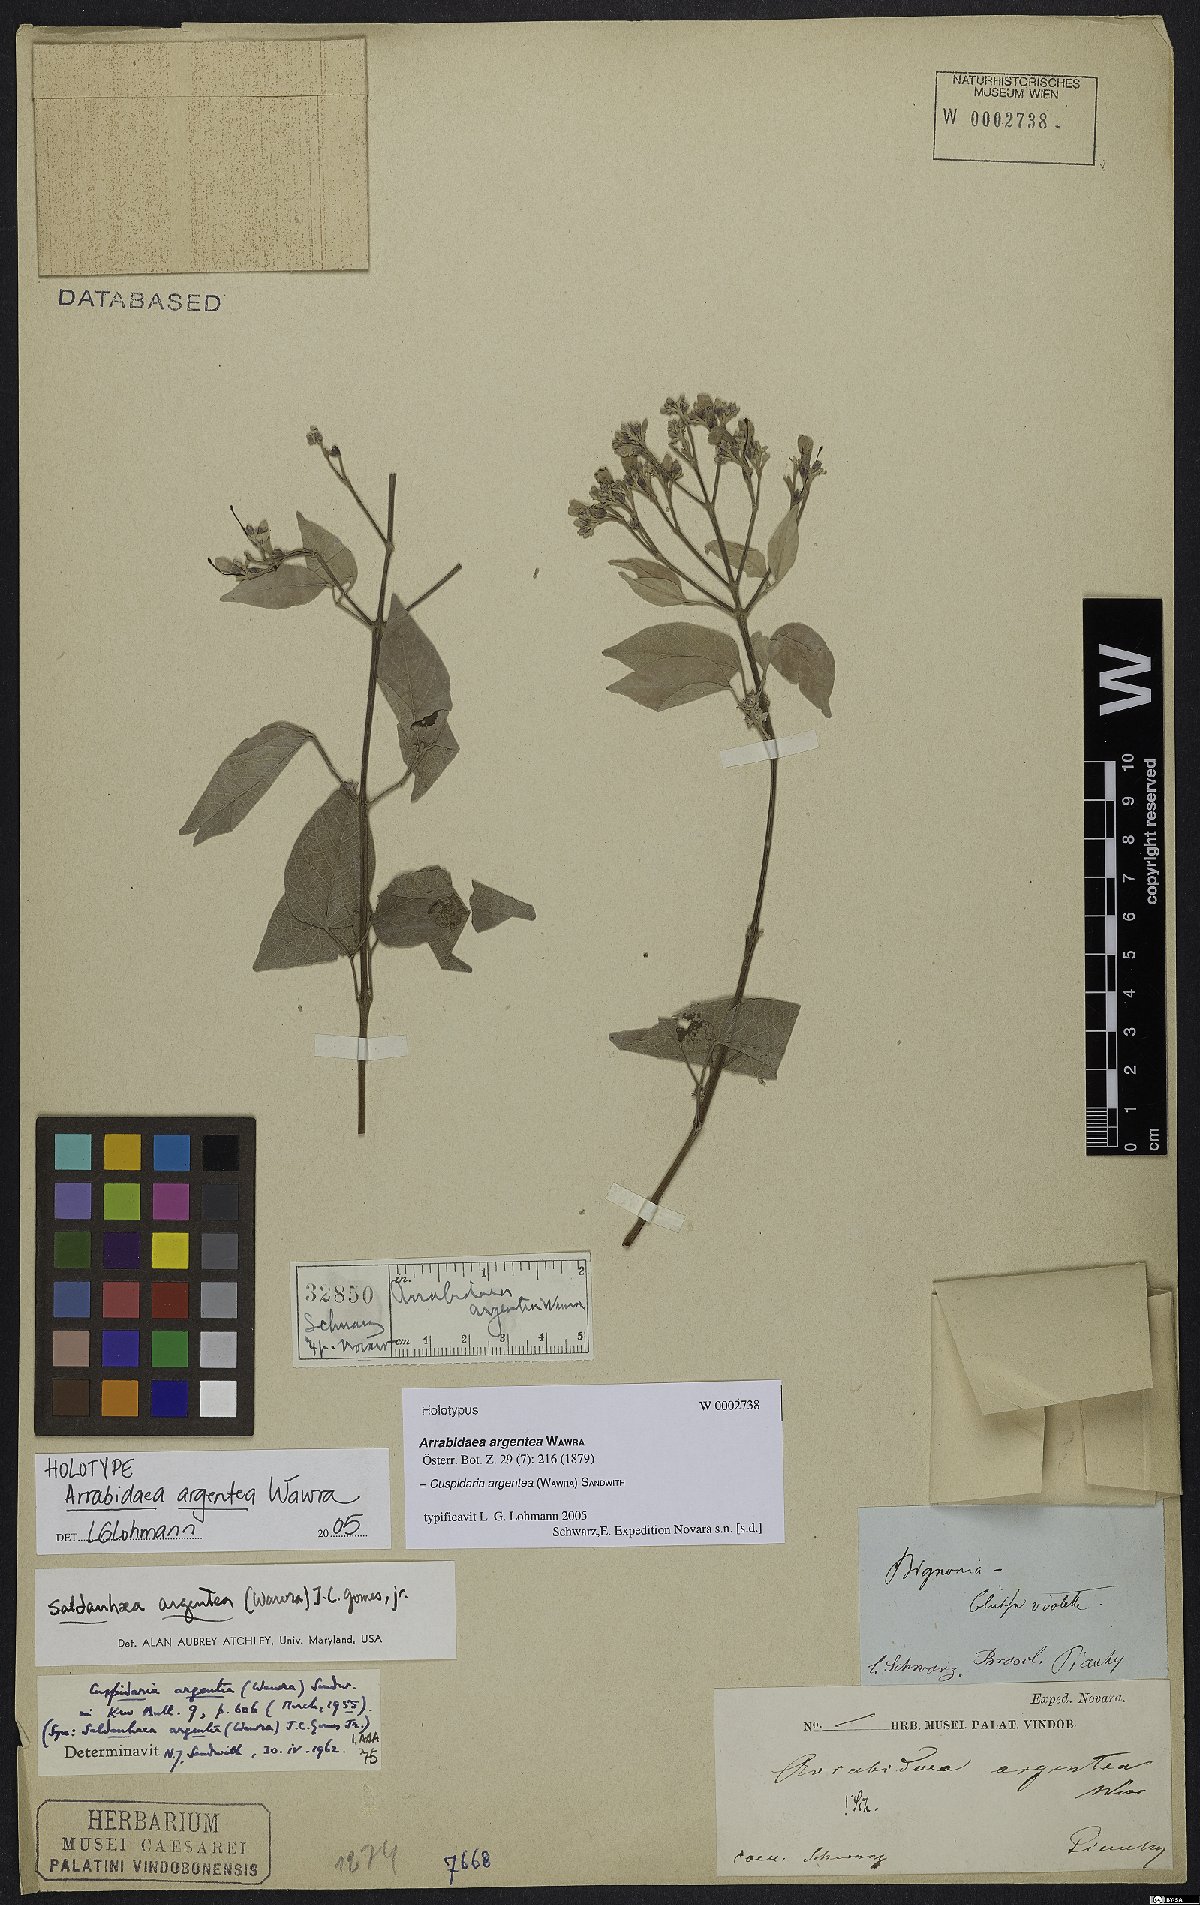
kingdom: Plantae
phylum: Tracheophyta
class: Magnoliopsida
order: Lamiales
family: Bignoniaceae
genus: Cuspidaria
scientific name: Cuspidaria argentea
